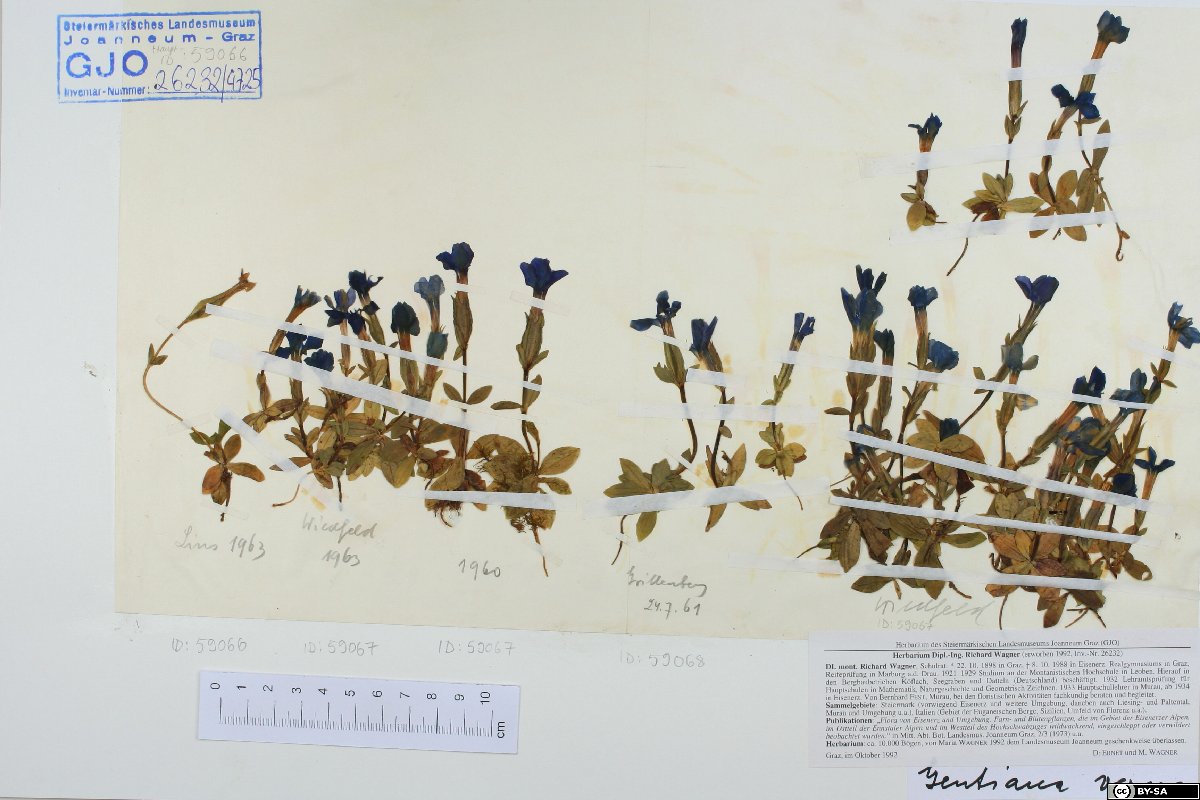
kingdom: Plantae
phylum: Tracheophyta
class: Magnoliopsida
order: Gentianales
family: Gentianaceae
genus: Gentiana
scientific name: Gentiana verna
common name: Spring gentian
